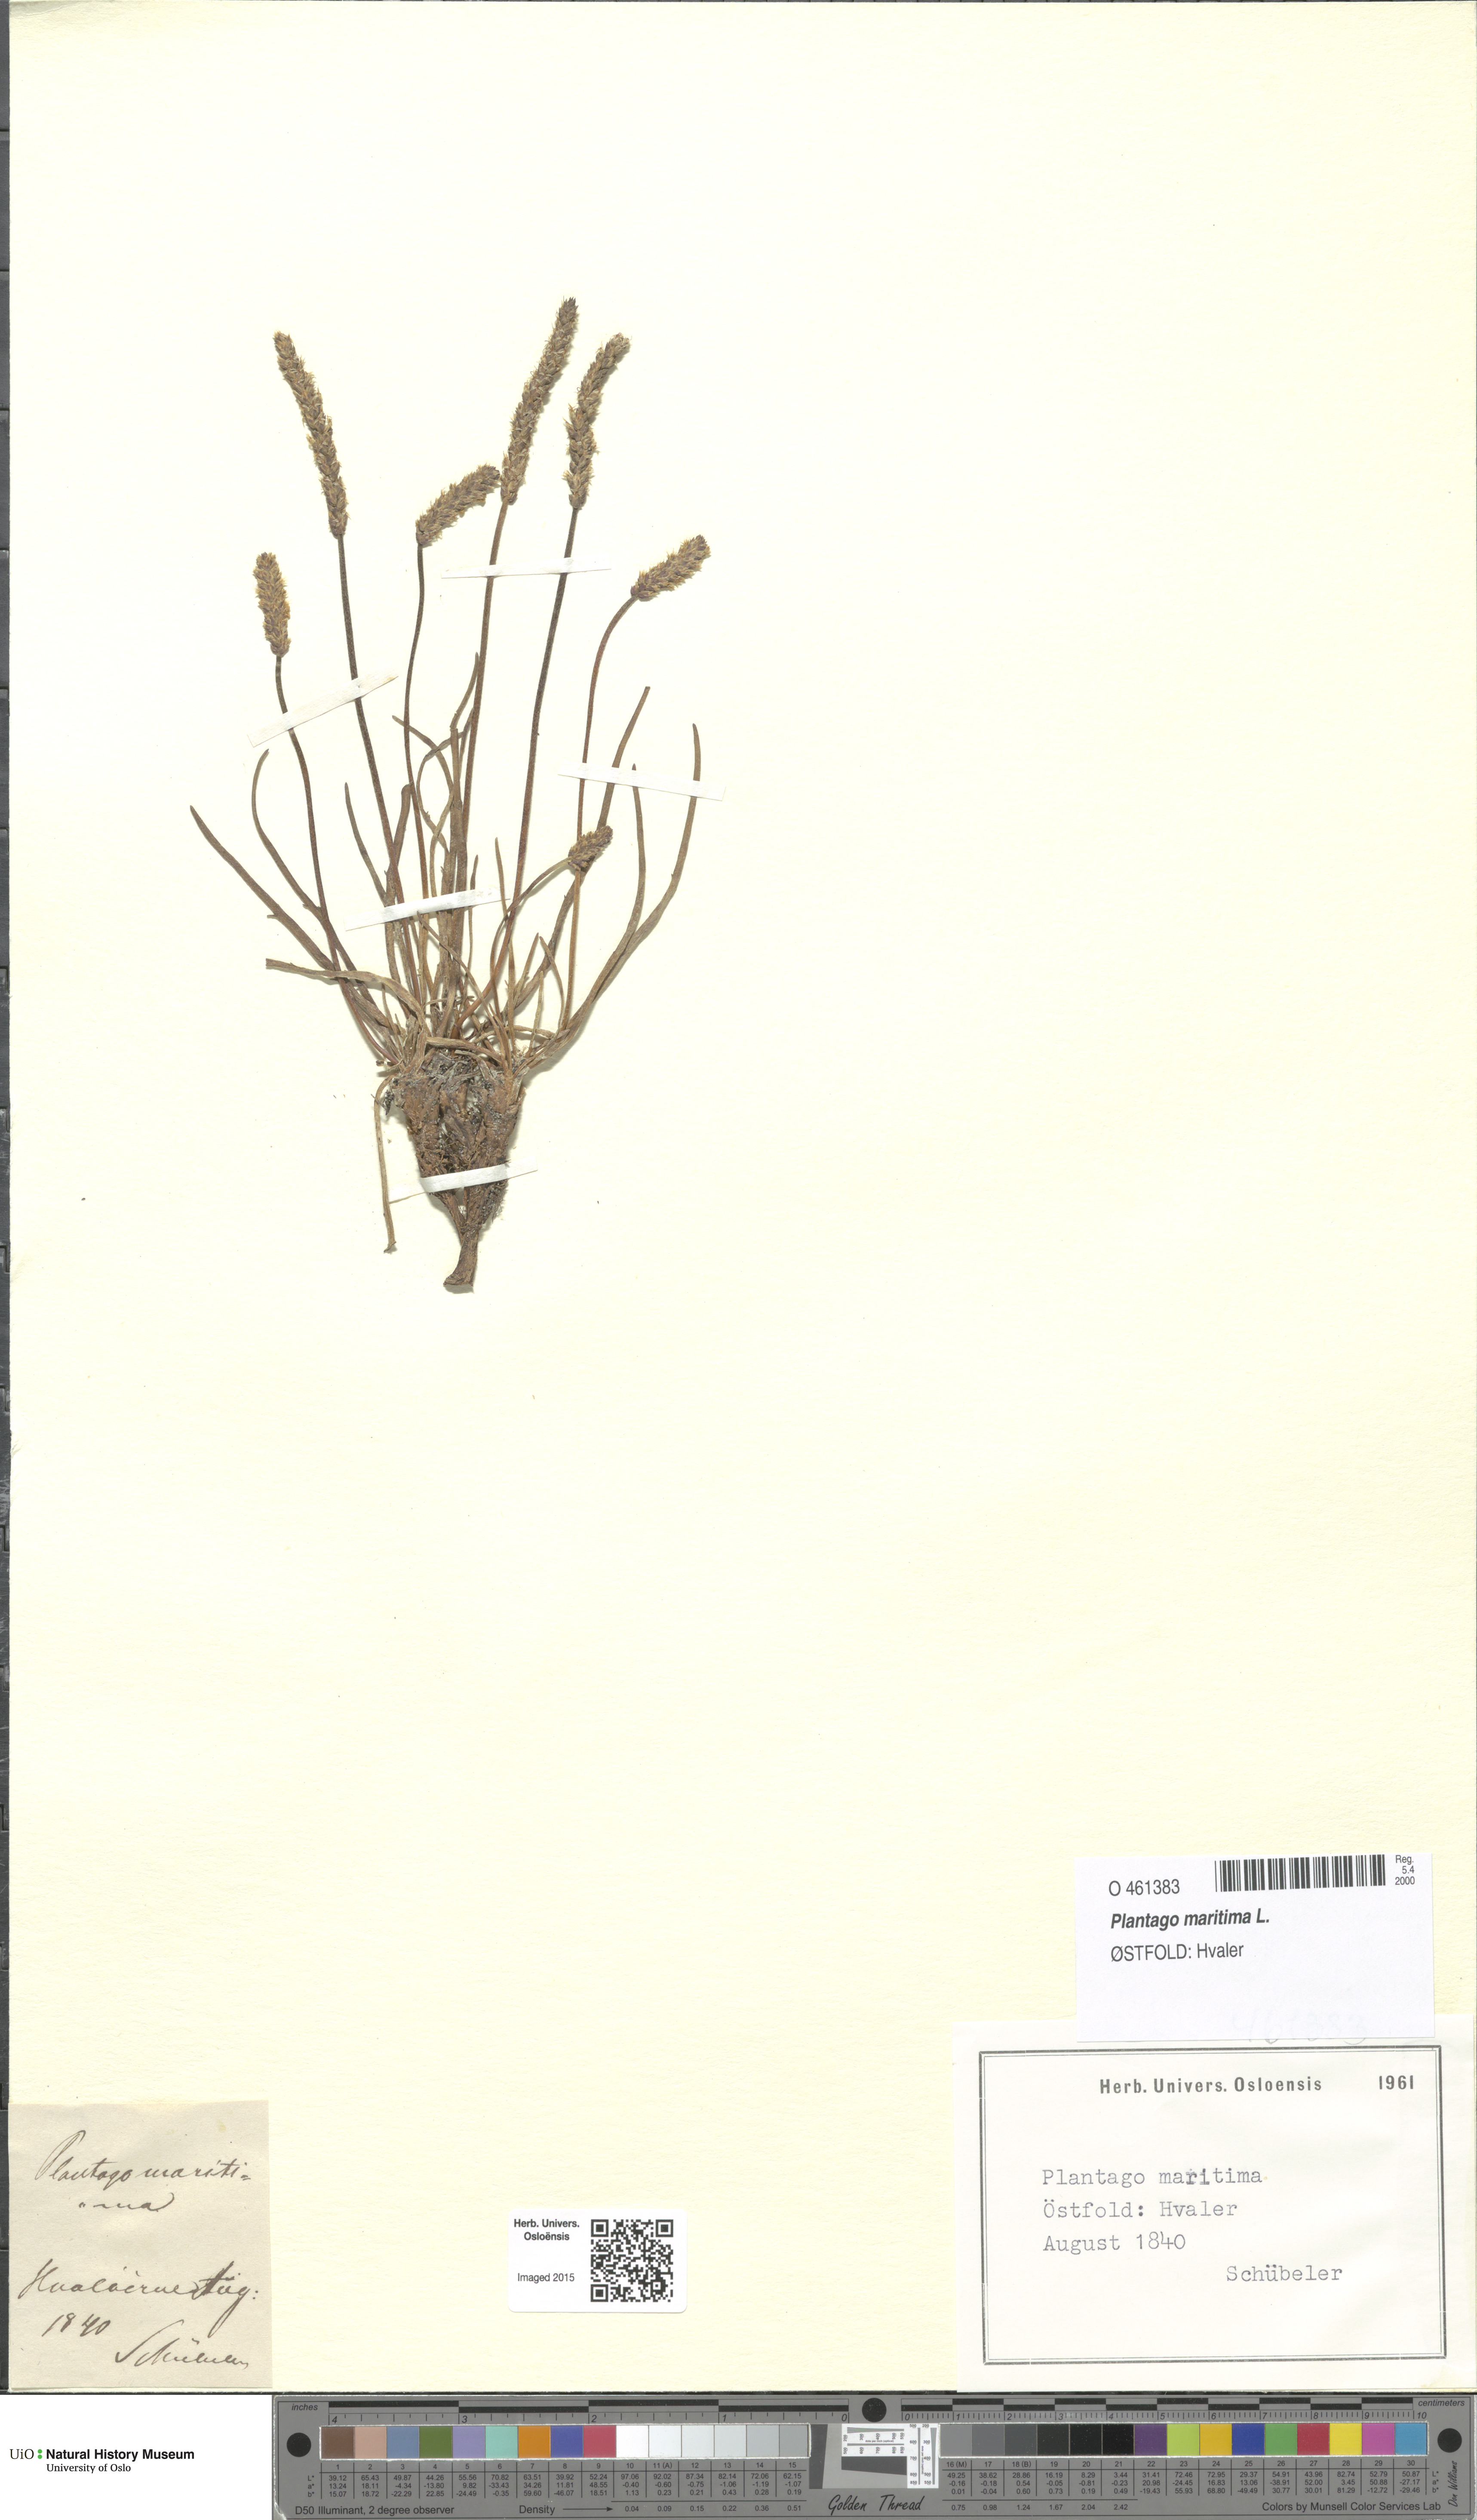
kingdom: Plantae
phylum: Tracheophyta
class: Magnoliopsida
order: Lamiales
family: Plantaginaceae
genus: Plantago
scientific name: Plantago maritima
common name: Sea plantain
